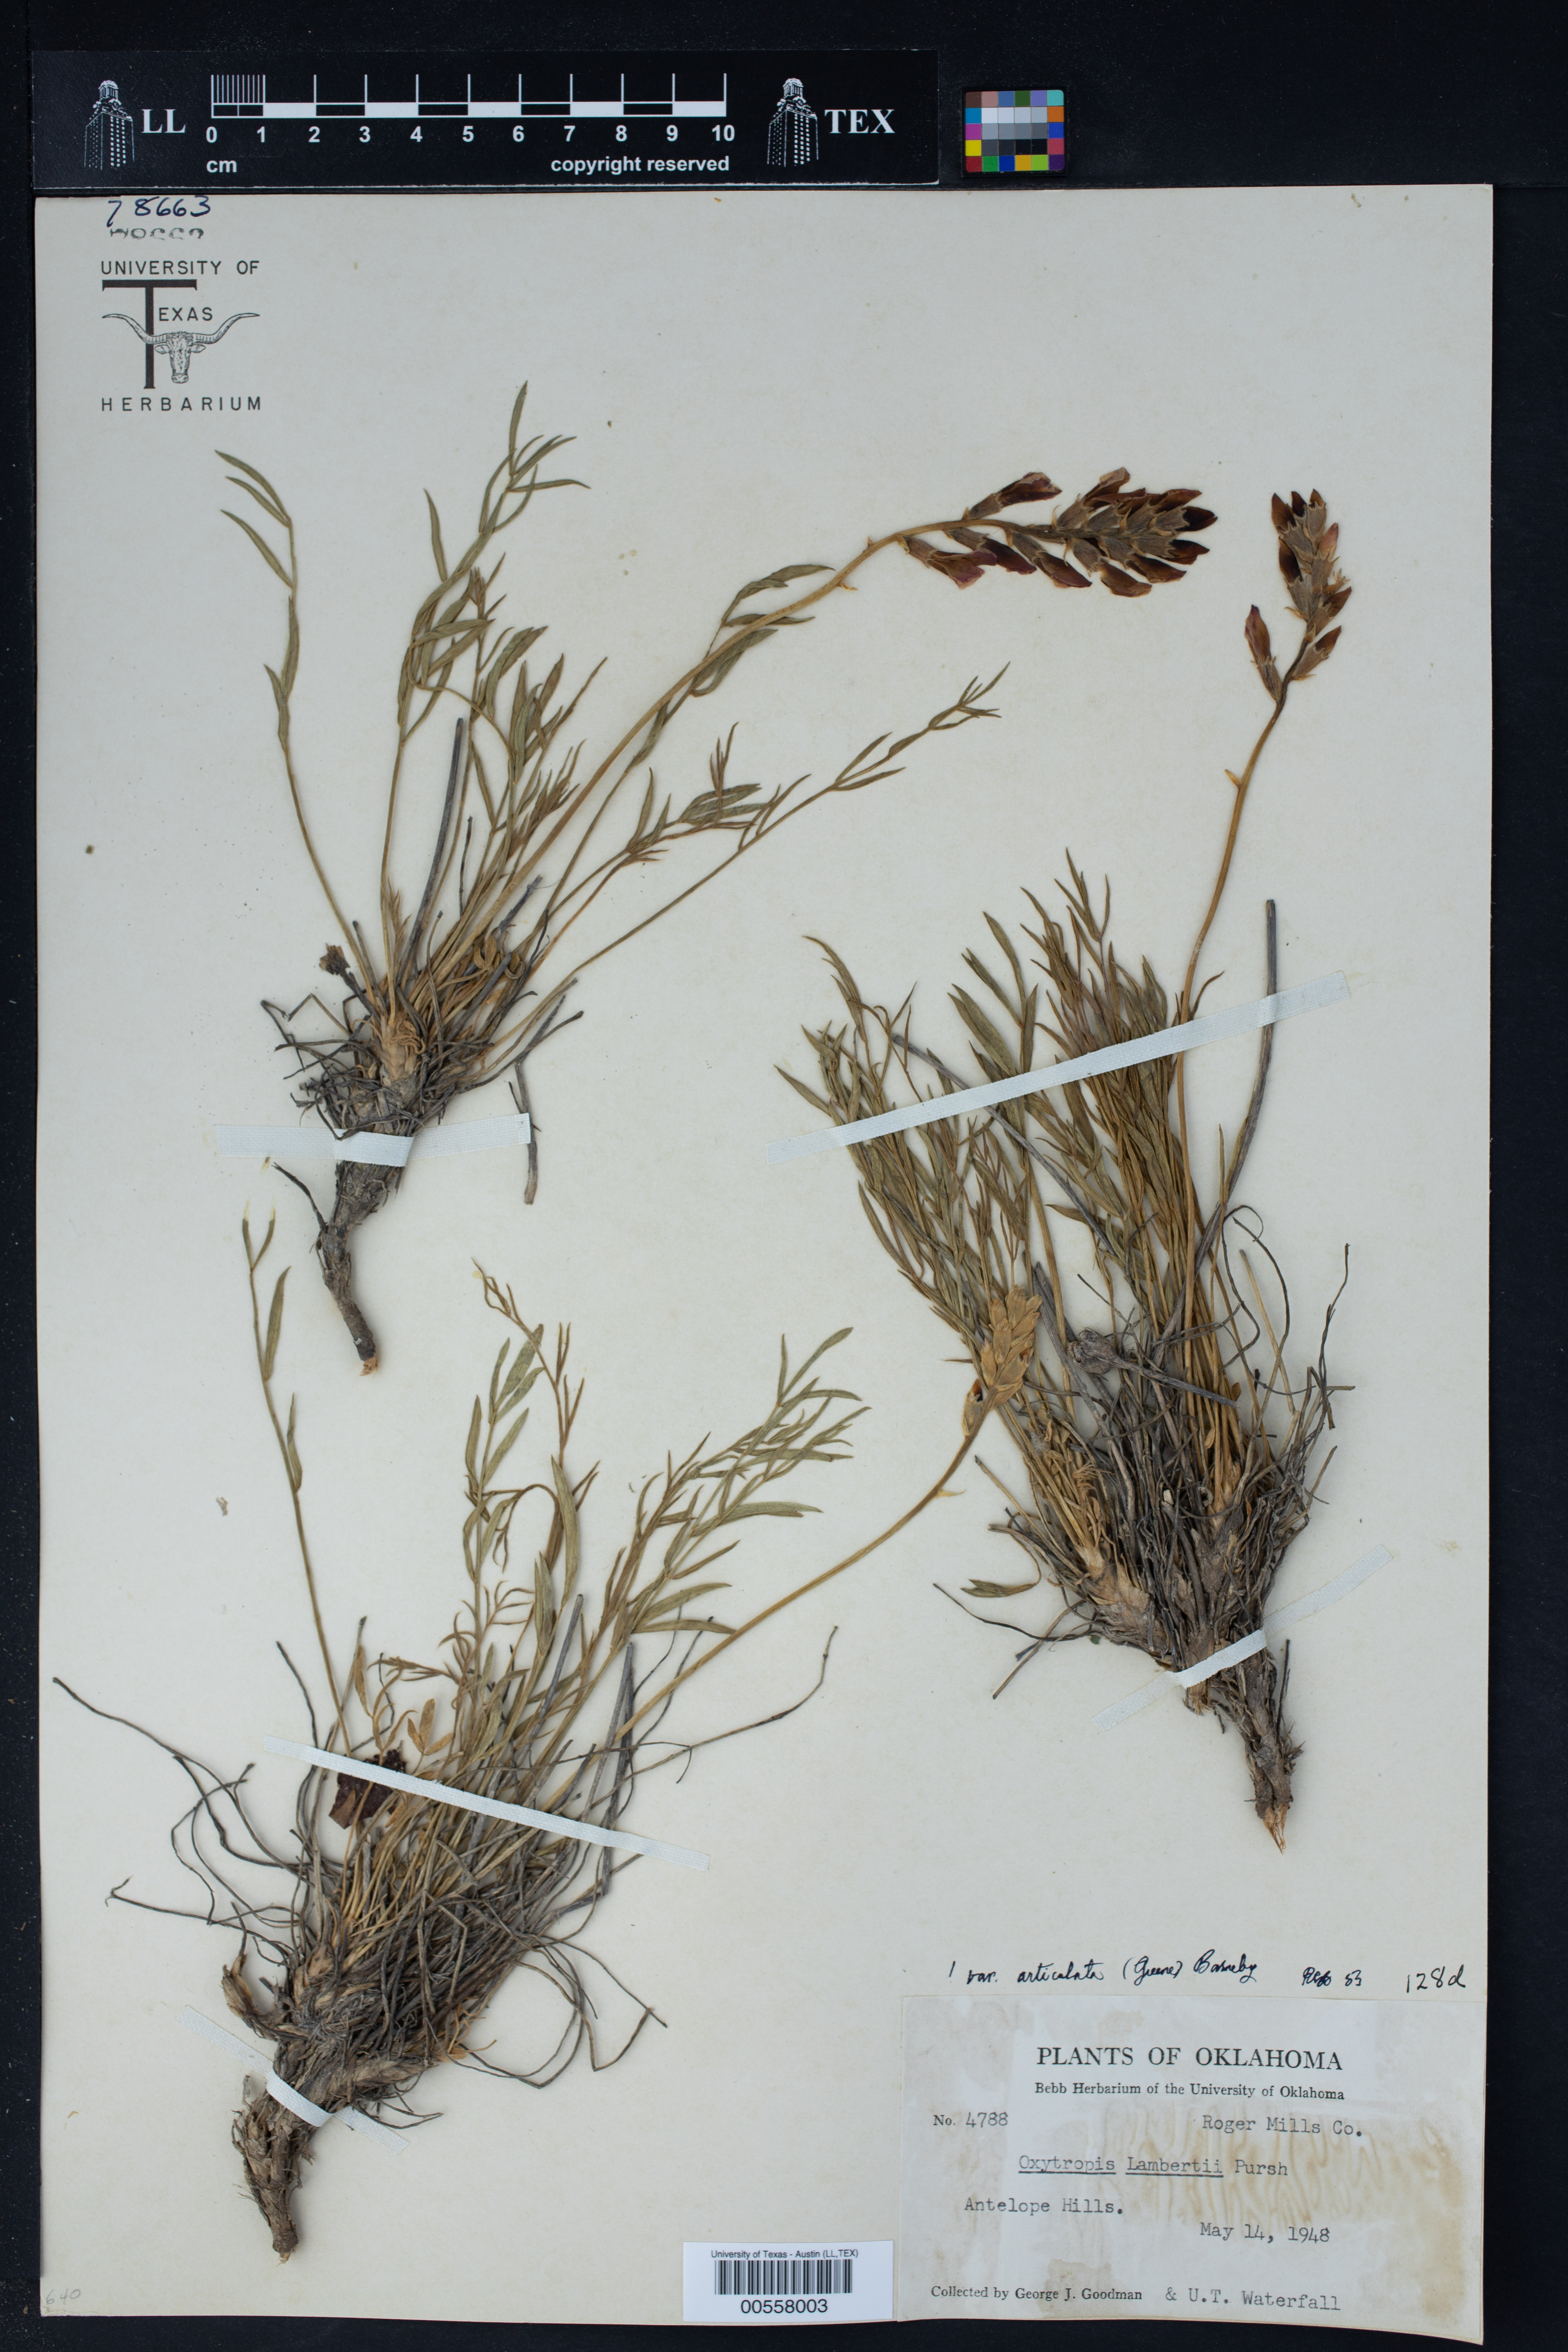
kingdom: Plantae
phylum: Tracheophyta
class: Magnoliopsida
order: Fabales
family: Fabaceae
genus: Oxytropis
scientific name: Oxytropis lambertii
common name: Purple locoweed
